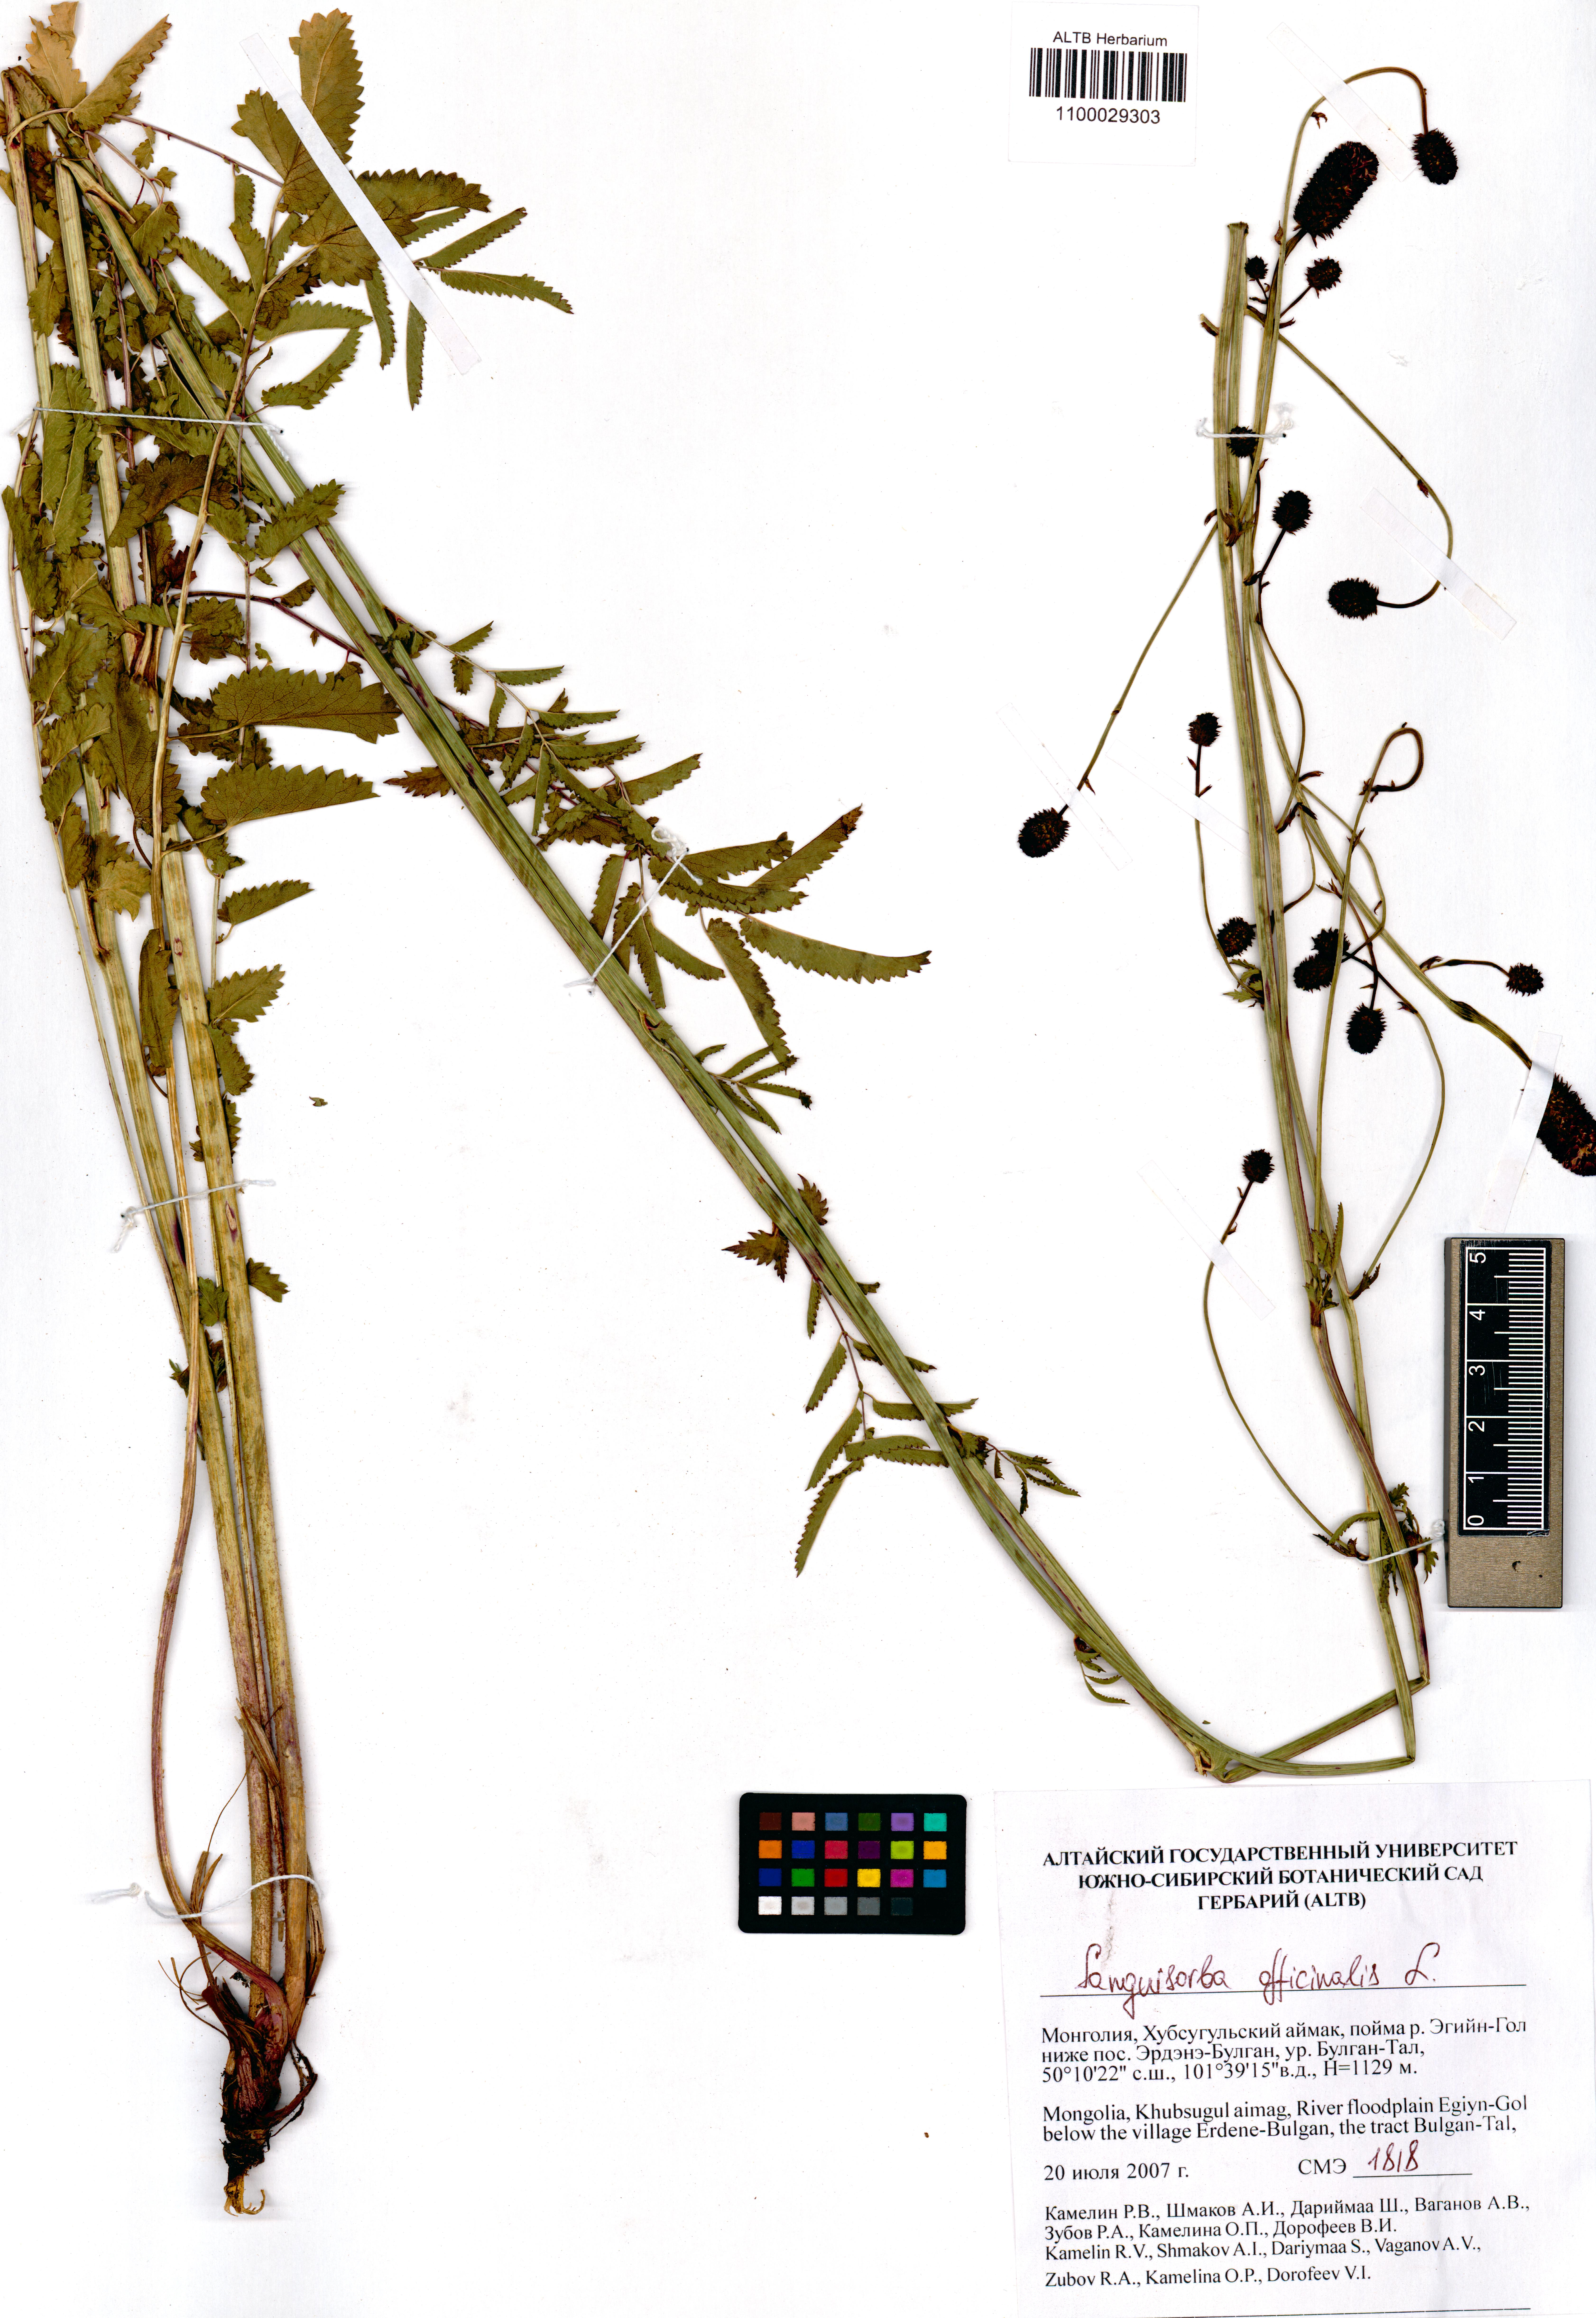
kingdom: Plantae
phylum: Tracheophyta
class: Magnoliopsida
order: Rosales
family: Rosaceae
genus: Sanguisorba
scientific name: Sanguisorba officinalis
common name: Great burnet
